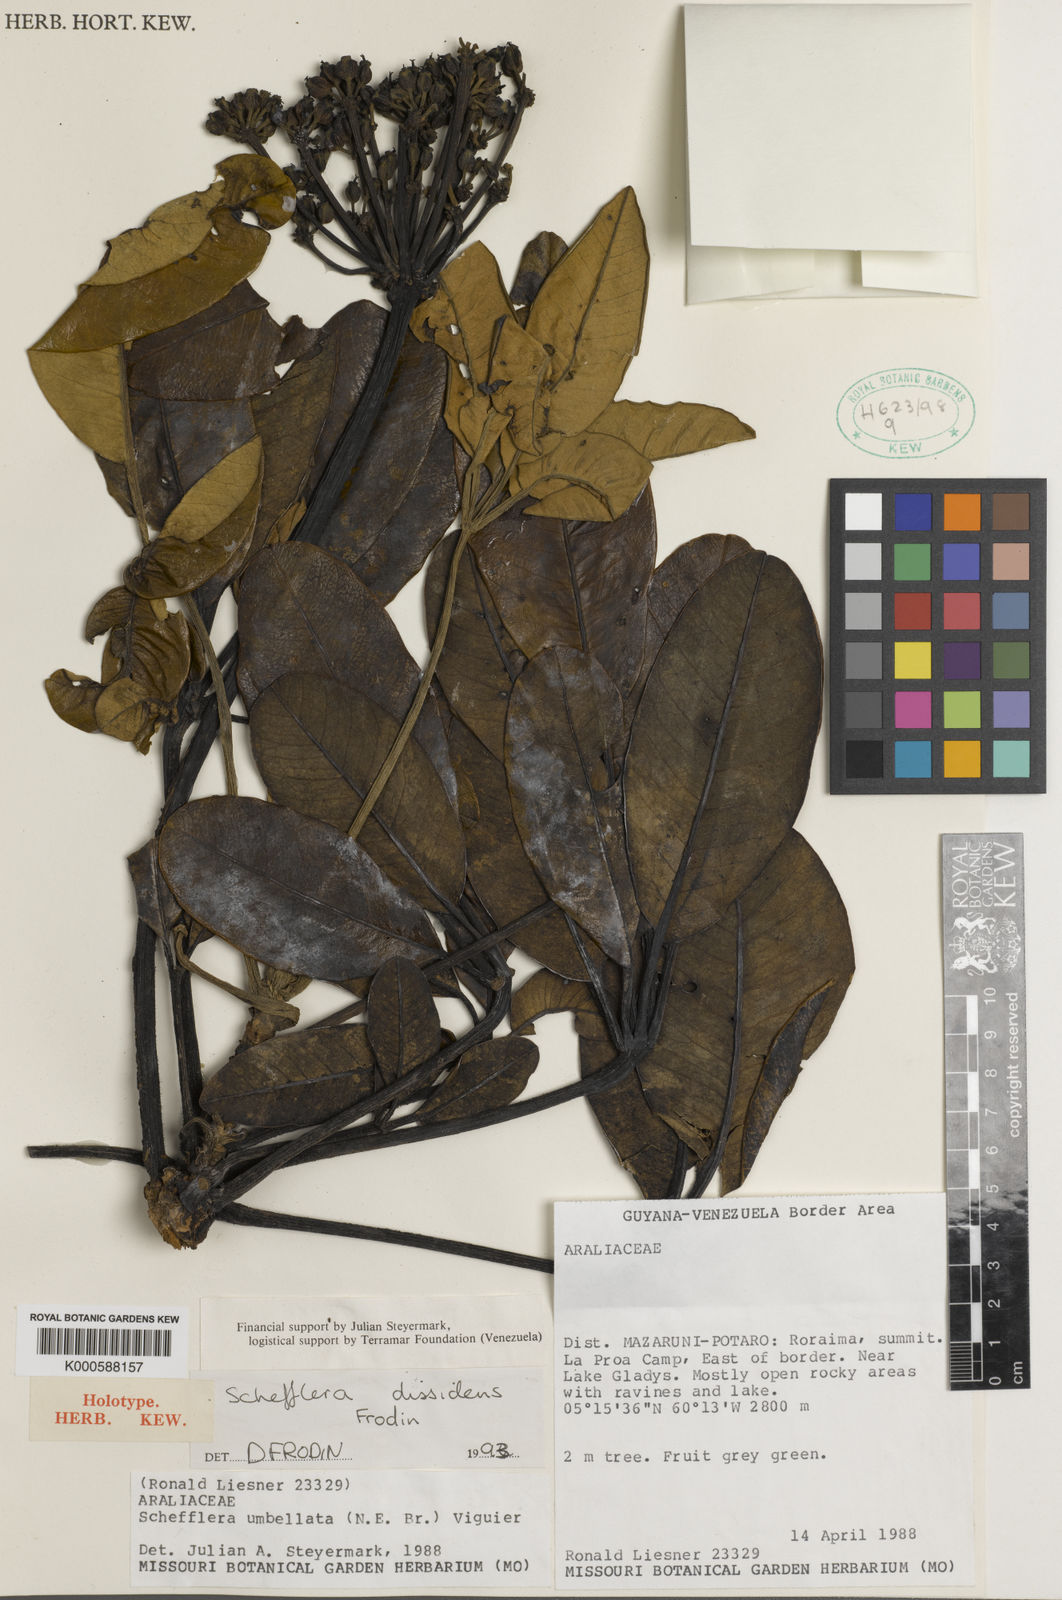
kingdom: Plantae
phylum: Tracheophyta
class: Magnoliopsida
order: Apiales
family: Araliaceae
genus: Crepinella
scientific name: Crepinella
